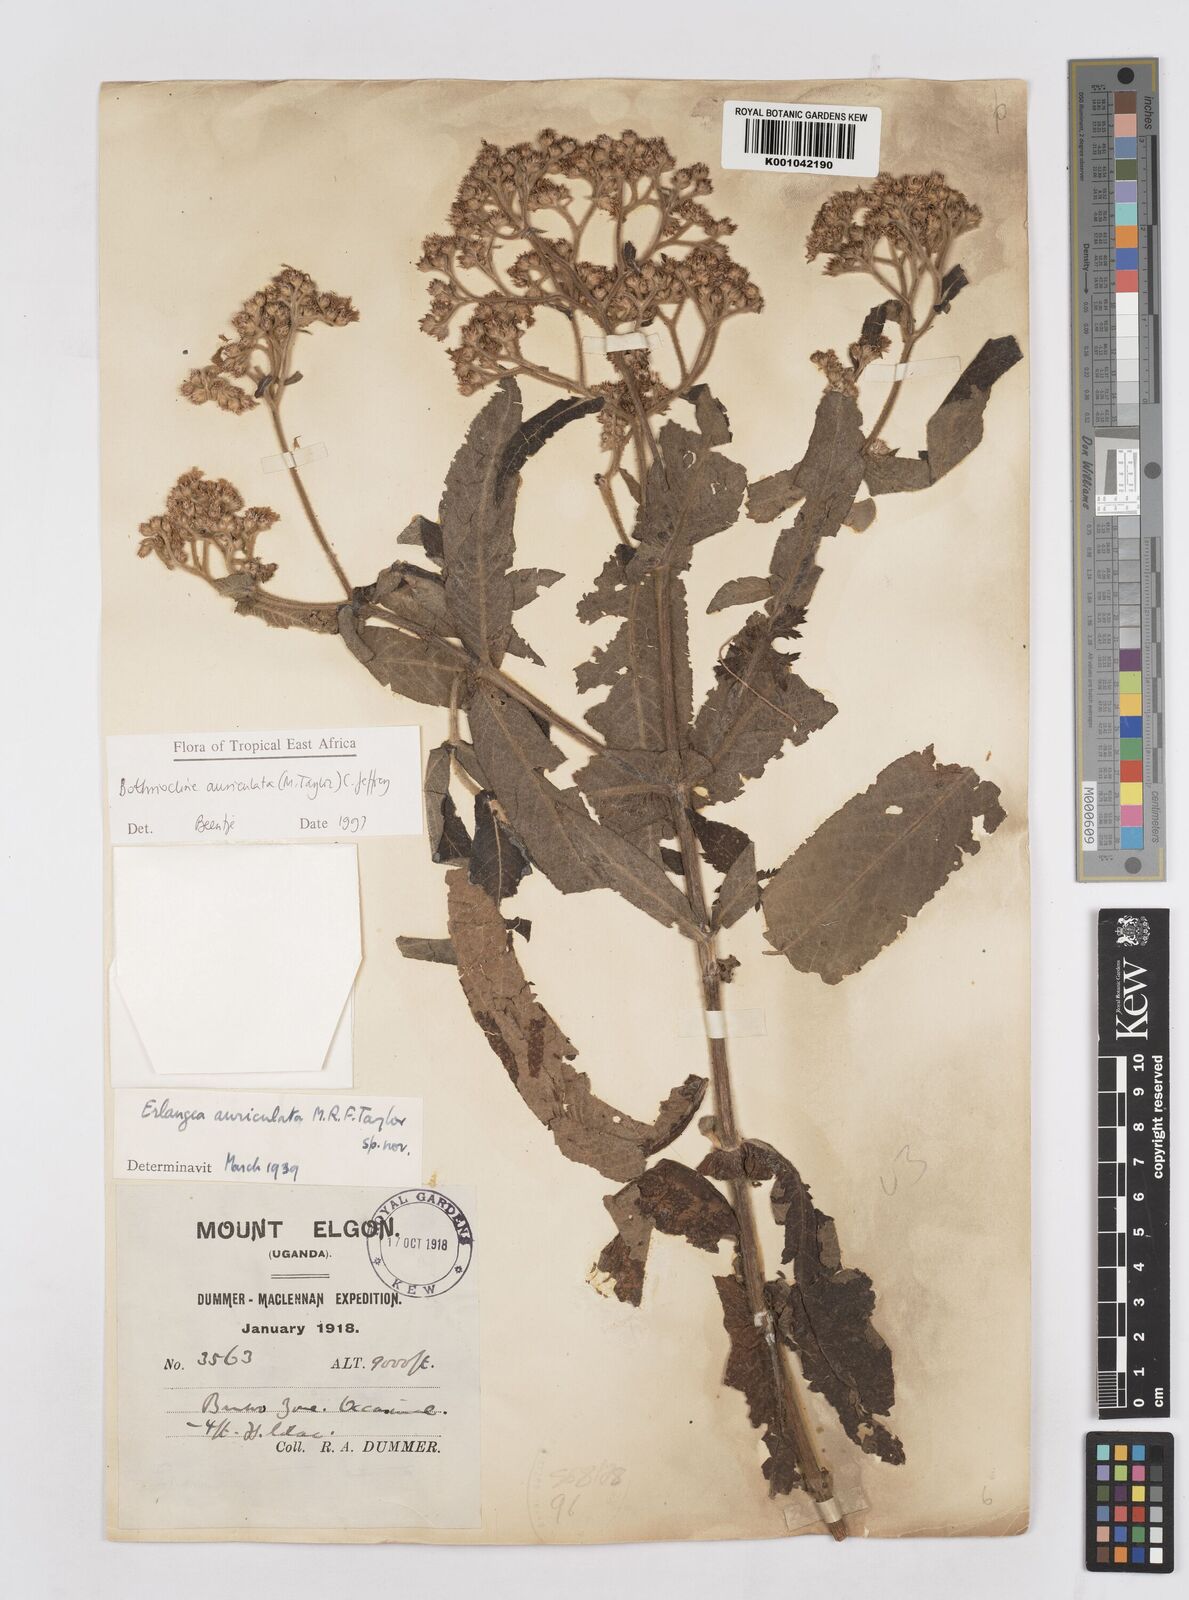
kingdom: Plantae
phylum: Tracheophyta
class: Magnoliopsida
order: Asterales
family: Asteraceae
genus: Bothriocline
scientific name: Bothriocline auriculata
